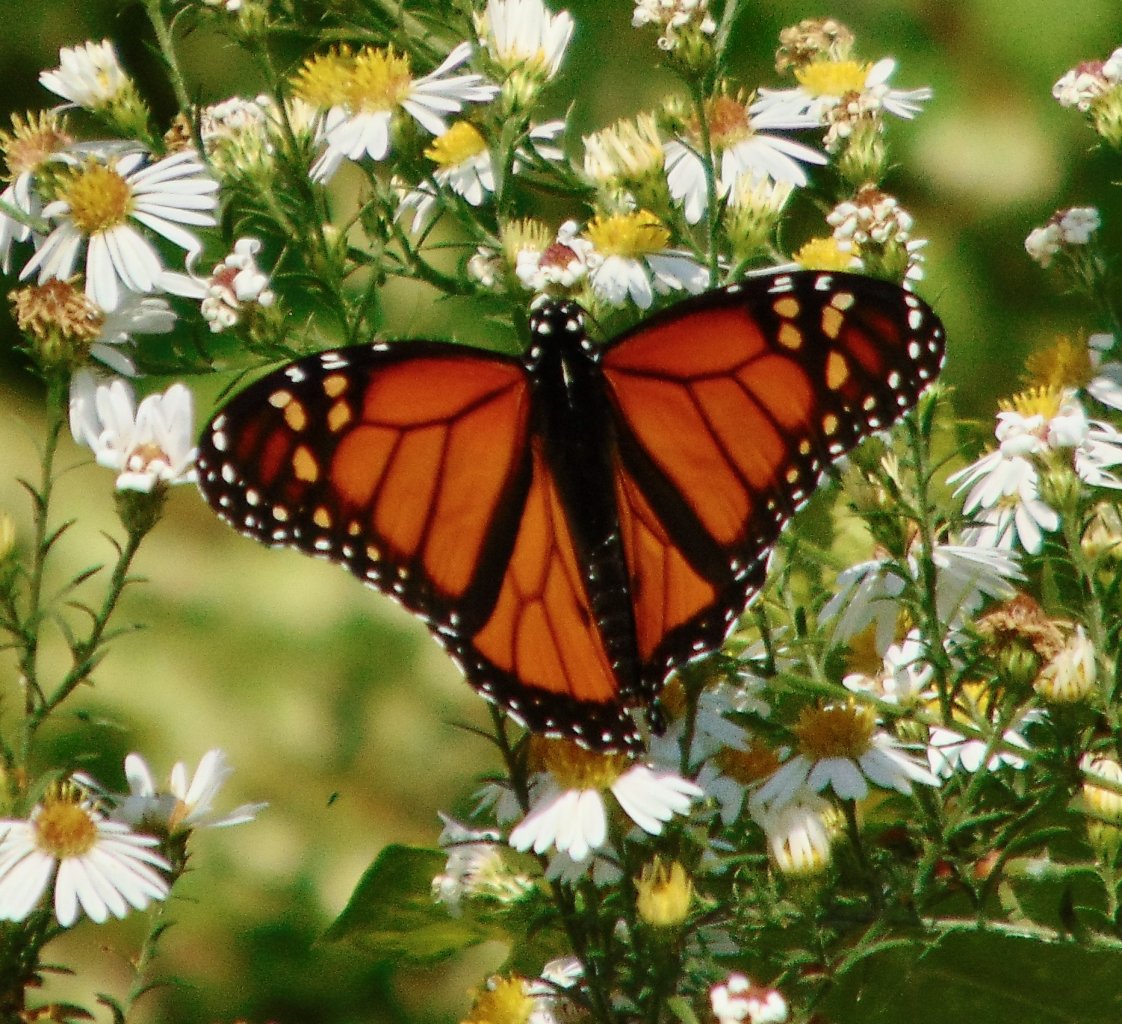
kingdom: Animalia
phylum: Arthropoda
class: Insecta
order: Lepidoptera
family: Nymphalidae
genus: Danaus
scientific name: Danaus plexippus
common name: Monarch
